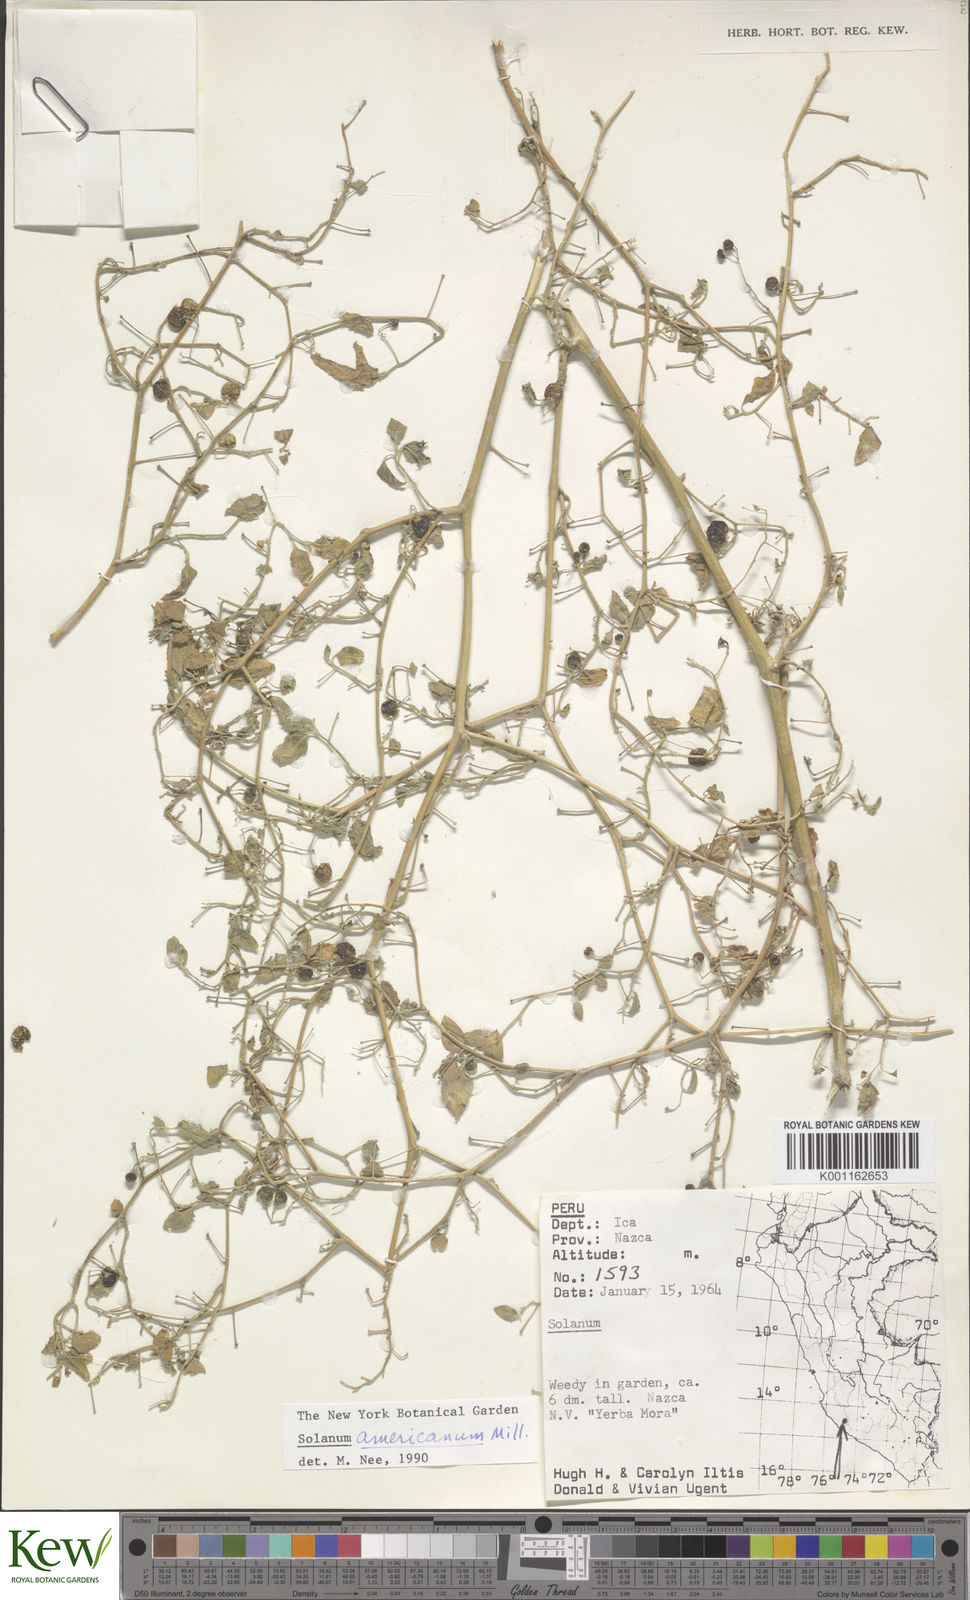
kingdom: Plantae
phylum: Tracheophyta
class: Magnoliopsida
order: Solanales
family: Solanaceae
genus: Solanum
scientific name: Solanum americanum
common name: American black nightshade
